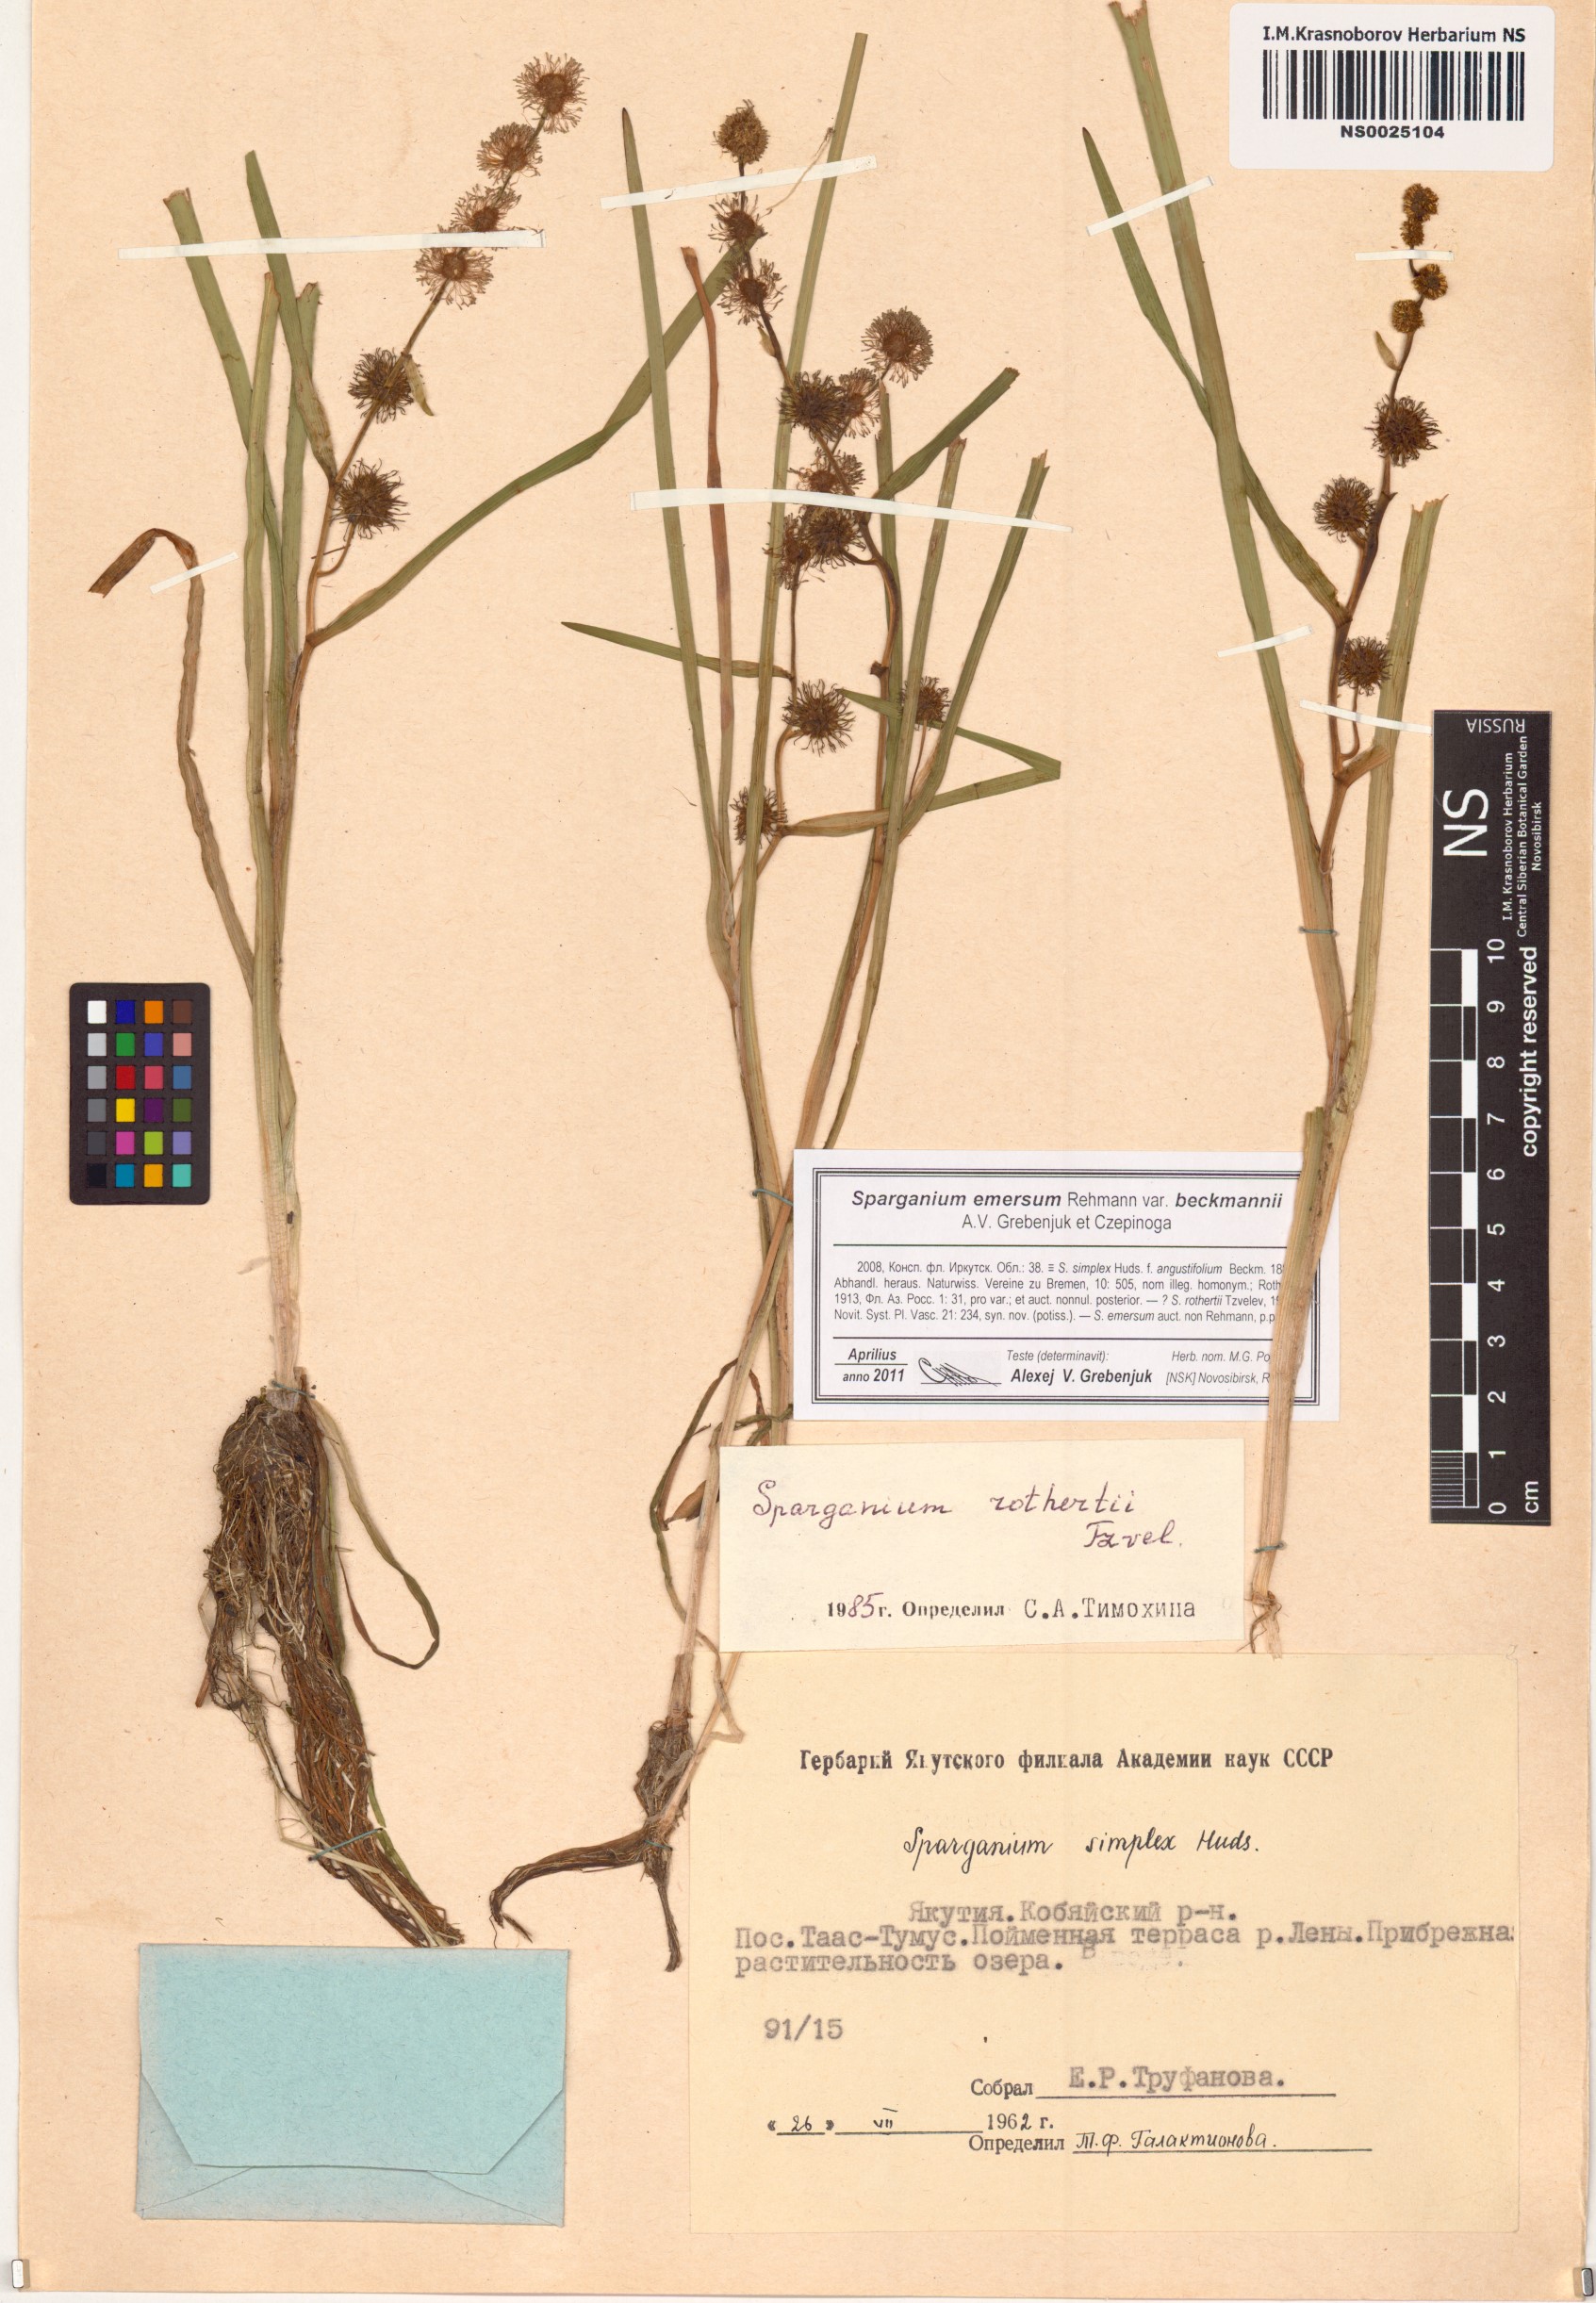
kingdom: Plantae
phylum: Tracheophyta
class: Liliopsida
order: Poales
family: Typhaceae
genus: Sparganium
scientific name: Sparganium emersum
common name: Unbranched bur-reed
